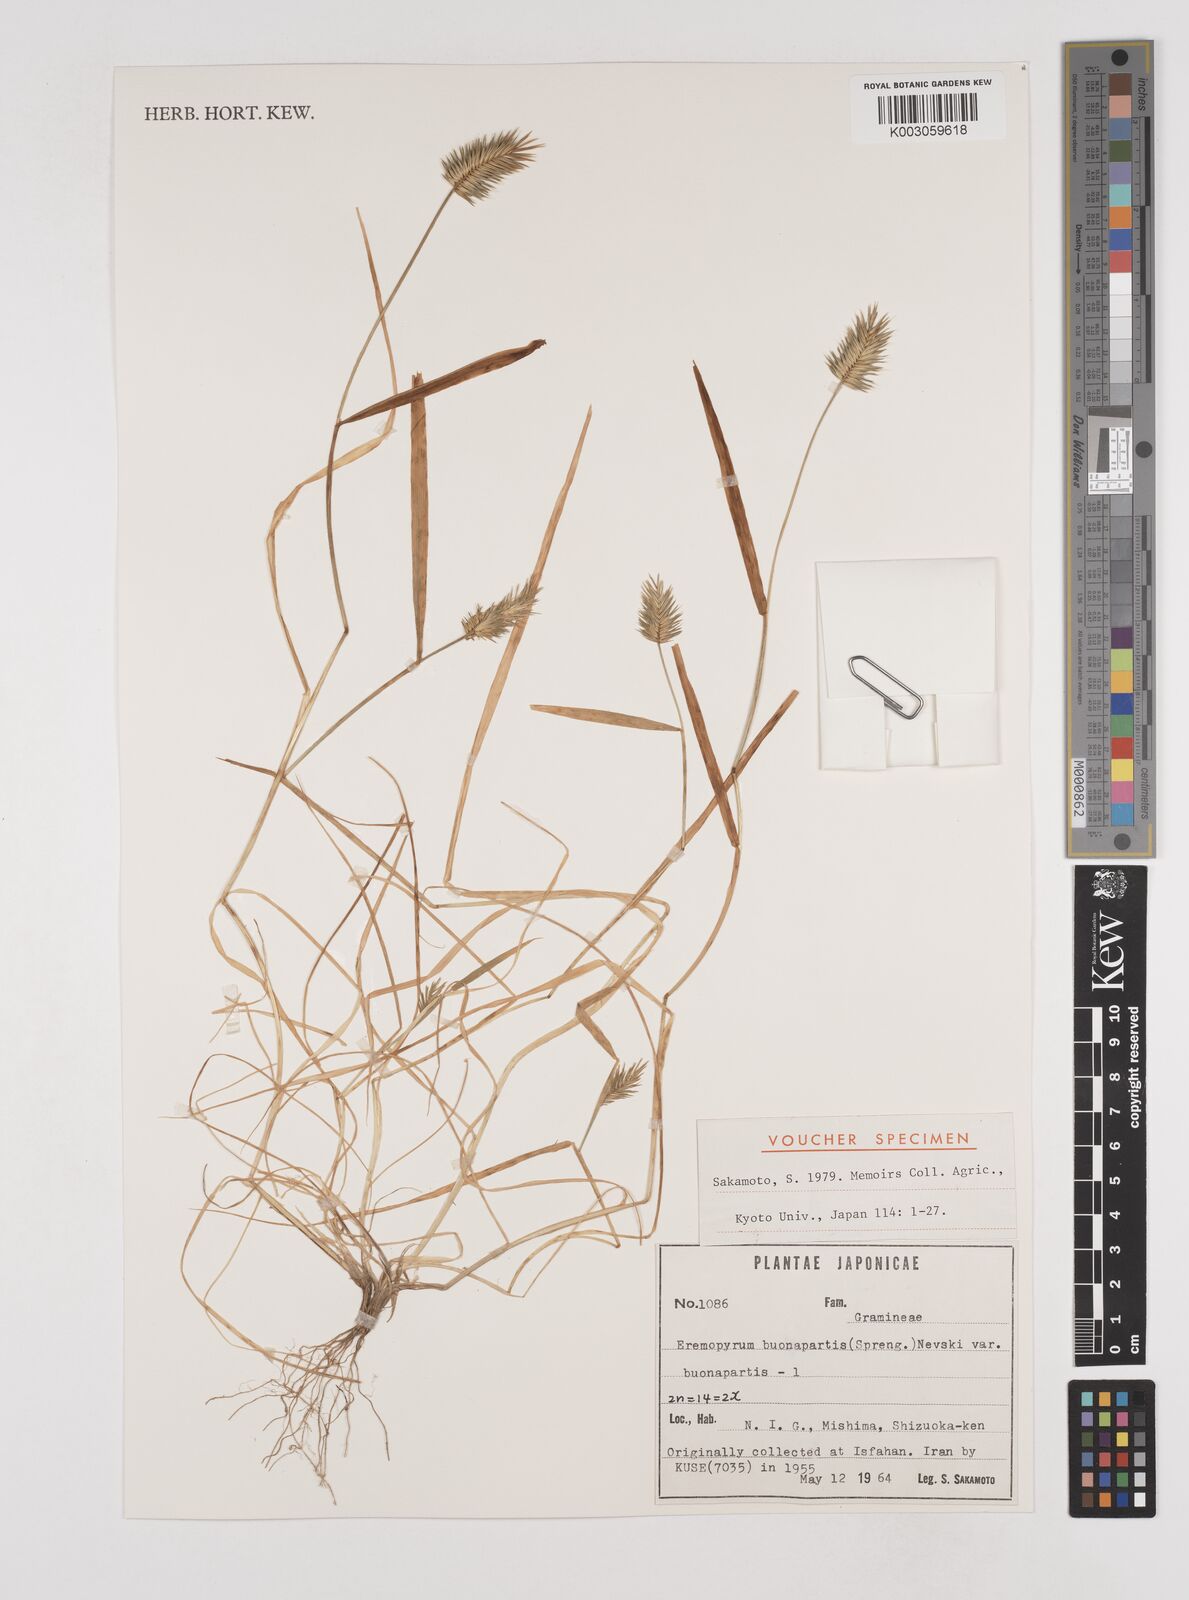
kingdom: Plantae
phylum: Tracheophyta
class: Liliopsida
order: Poales
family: Poaceae
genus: Eremopyrum
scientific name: Eremopyrum bonaepartis
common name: Tapertip false wheatgrass
